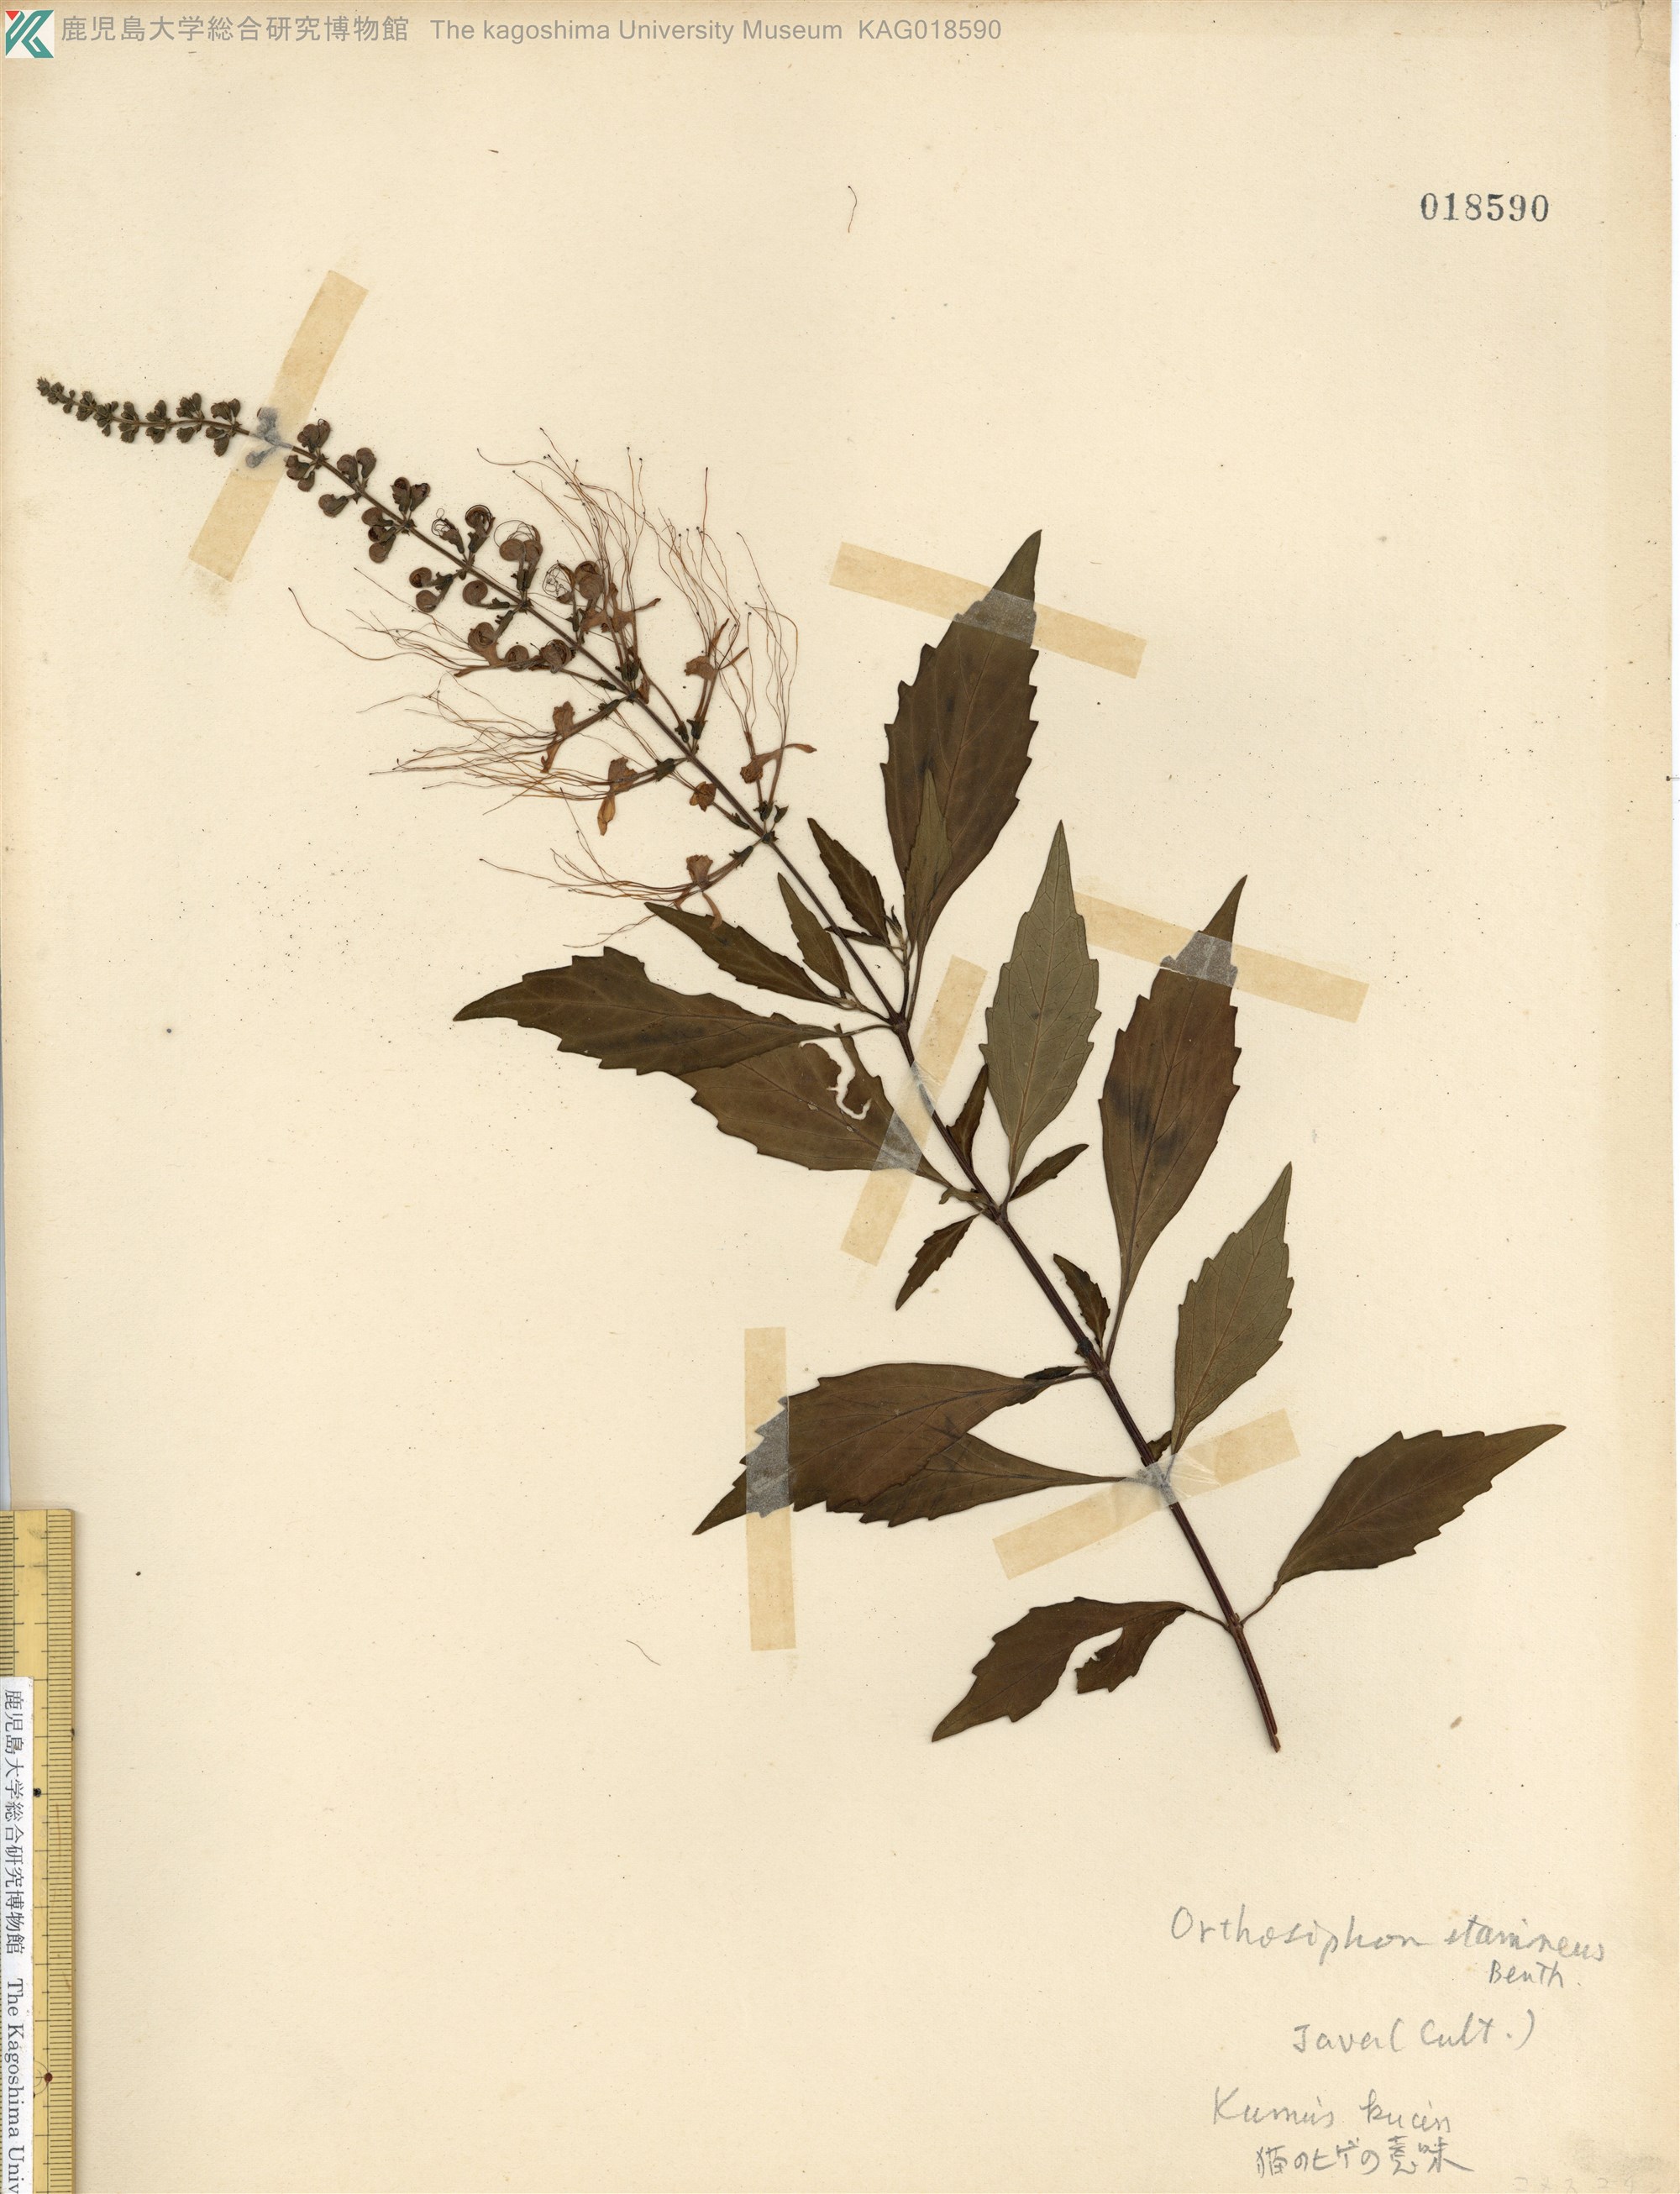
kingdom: Plantae
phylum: Tracheophyta
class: Magnoliopsida
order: Lamiales
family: Lamiaceae
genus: Orthosiphon
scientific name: Orthosiphon aristatus
